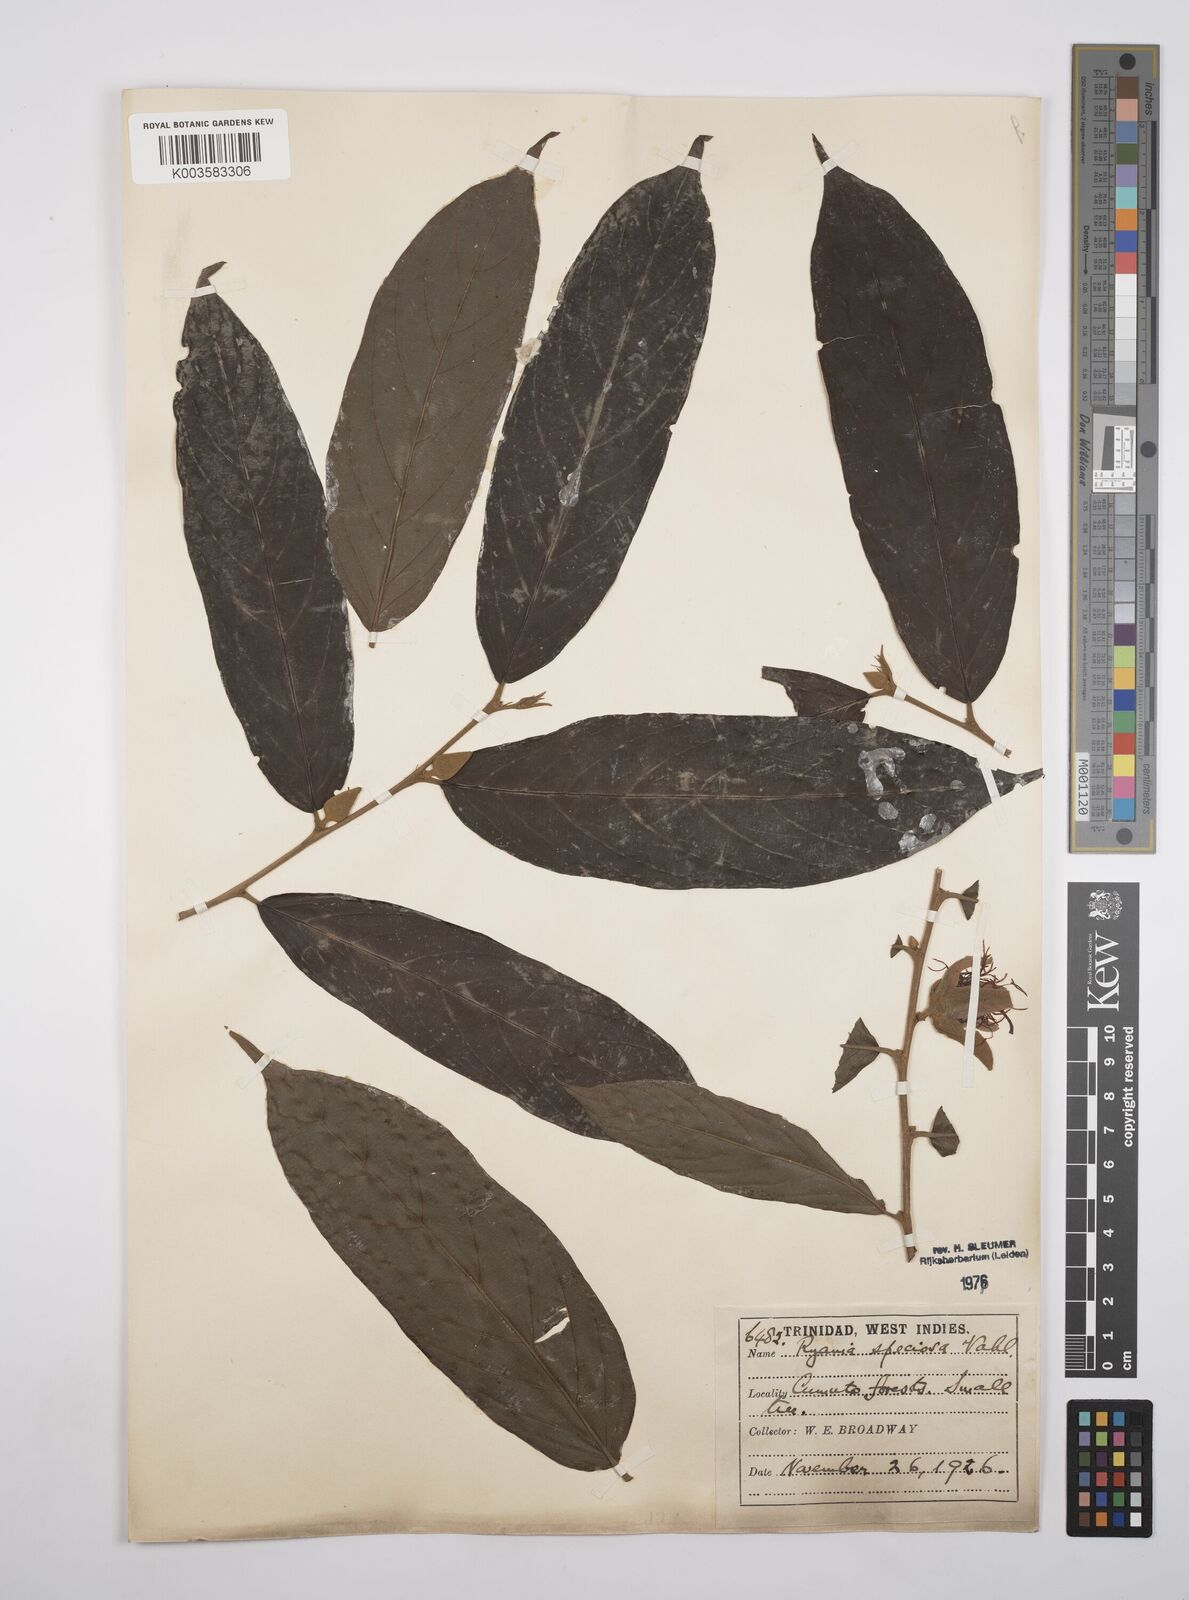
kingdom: Plantae
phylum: Tracheophyta
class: Magnoliopsida
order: Malpighiales
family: Salicaceae
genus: Ryania
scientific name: Ryania speciosa
